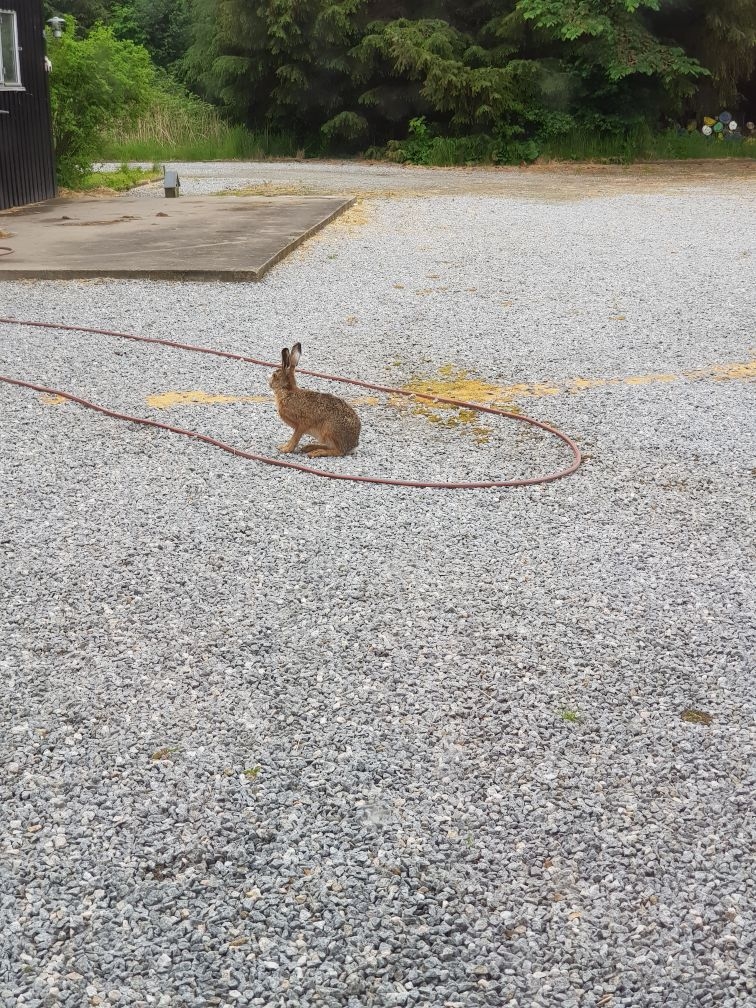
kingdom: Animalia
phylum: Chordata
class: Mammalia
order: Lagomorpha
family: Leporidae
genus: Lepus
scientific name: Lepus europaeus
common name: Hare
